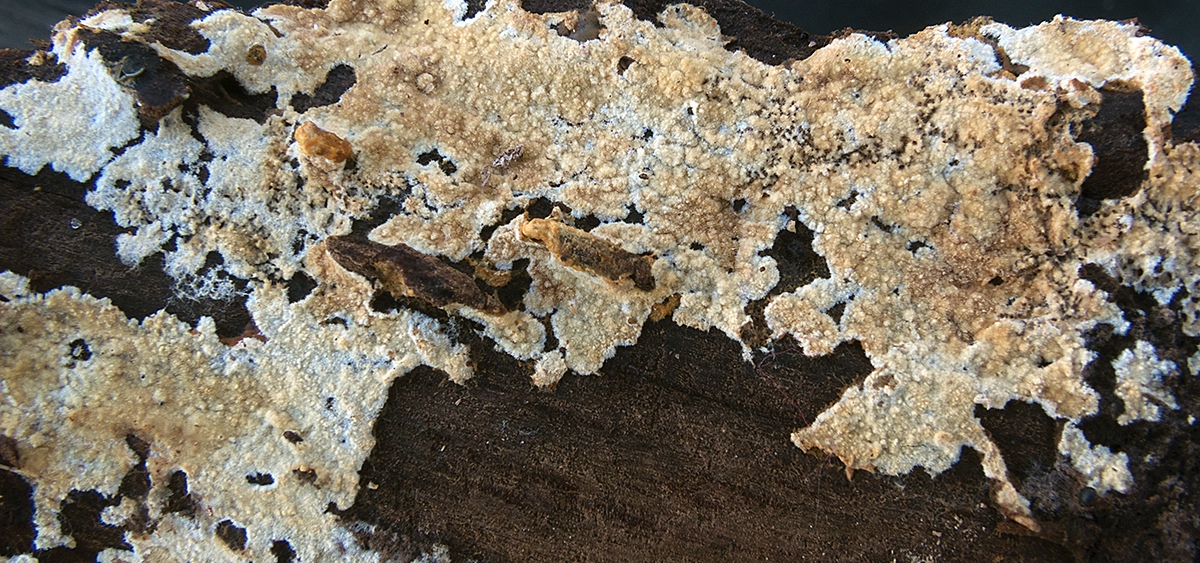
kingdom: Fungi
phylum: Basidiomycota
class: Agaricomycetes
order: Hymenochaetales
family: Rickenellaceae
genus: Odonticium
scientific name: Odonticium septocystidia
